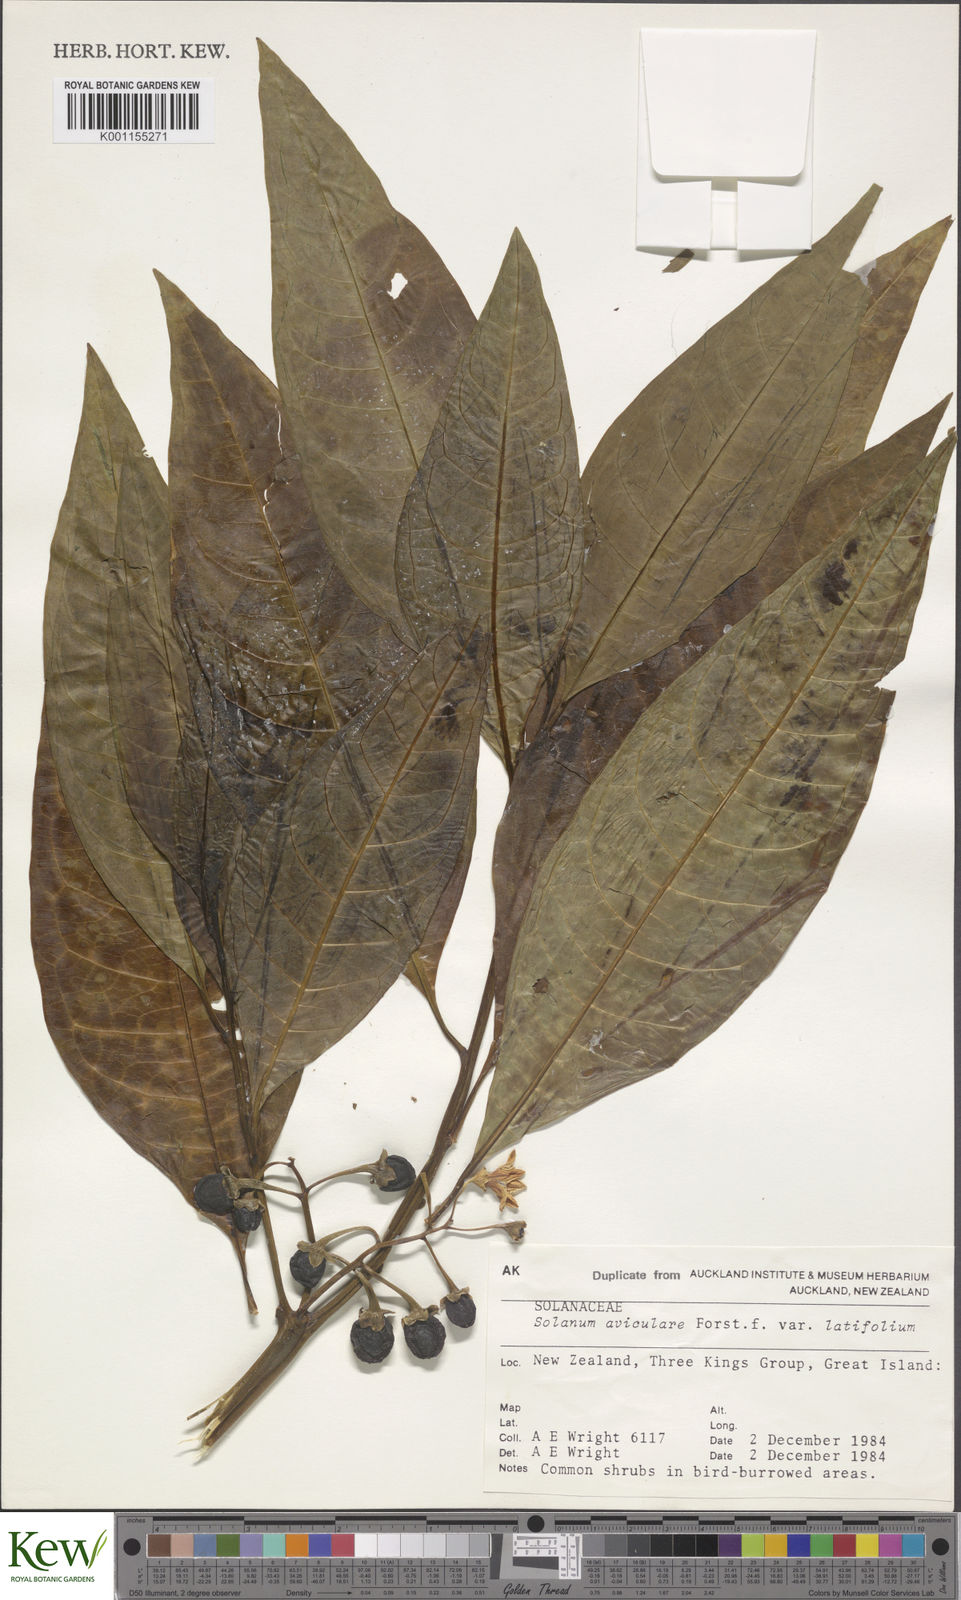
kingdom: Plantae
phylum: Tracheophyta
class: Magnoliopsida
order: Solanales
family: Solanaceae
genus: Solanum
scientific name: Solanum aviculare
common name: New zealand nightshade
